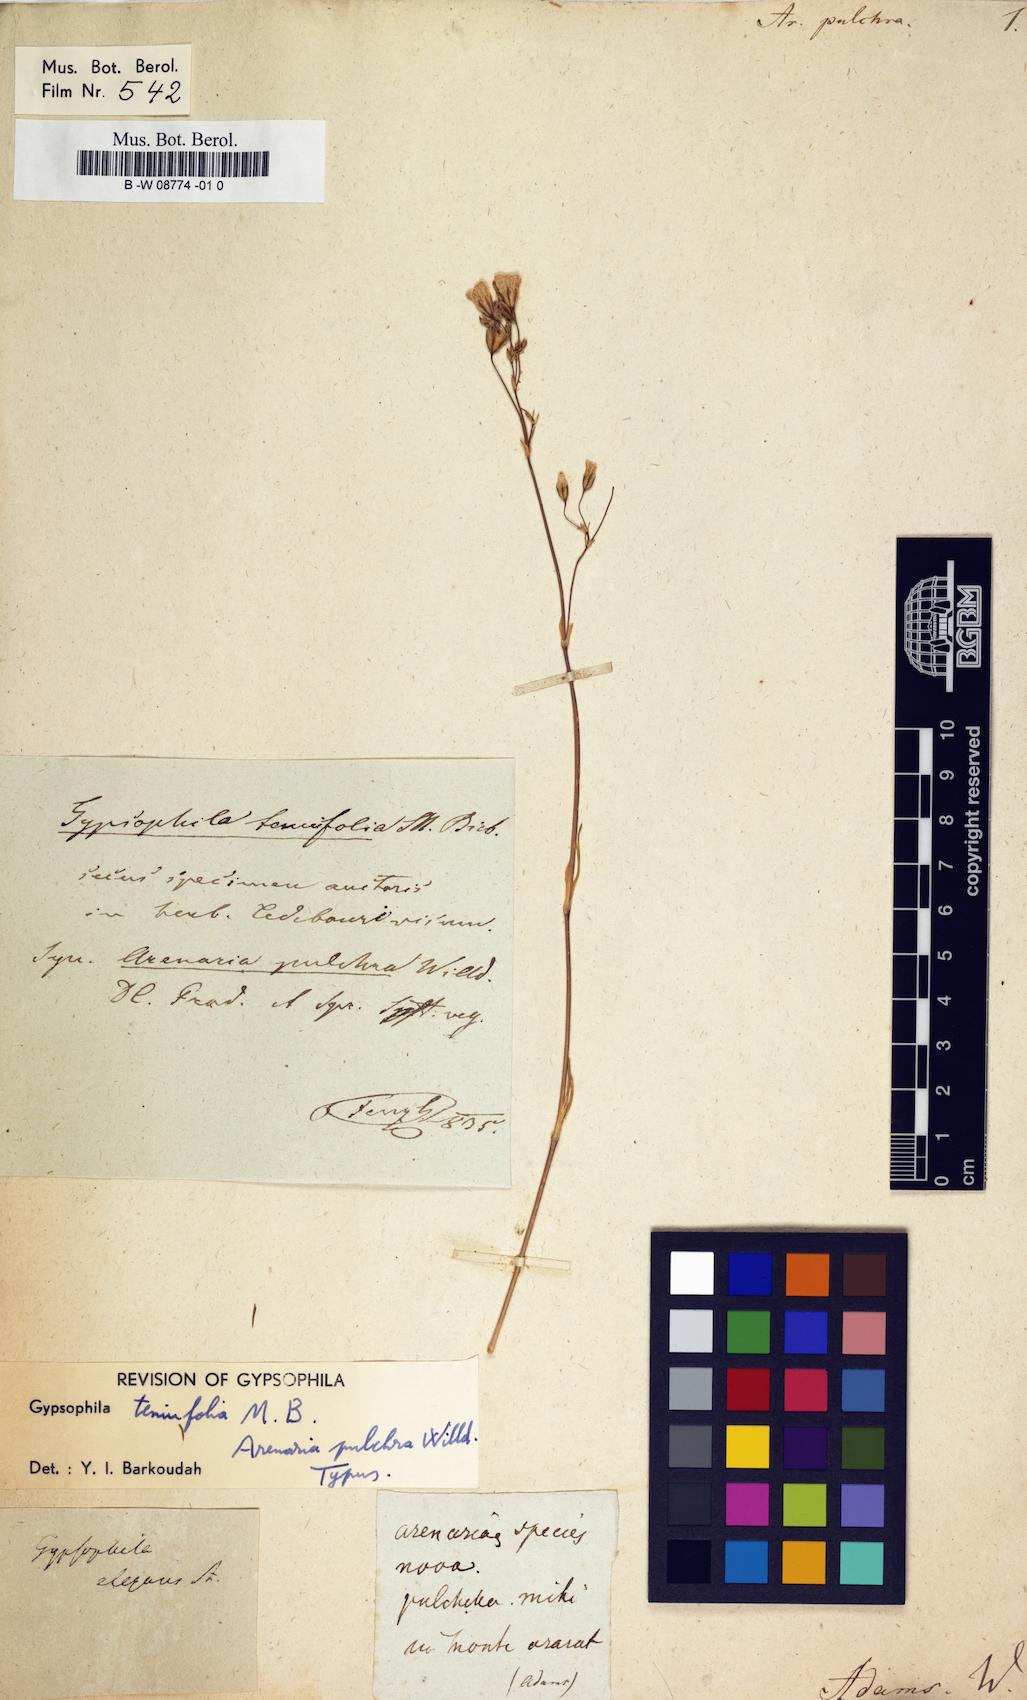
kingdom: Plantae
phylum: Tracheophyta
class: Magnoliopsida
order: Caryophyllales
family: Caryophyllaceae
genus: Arenaria
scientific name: Arenaria pulchra
